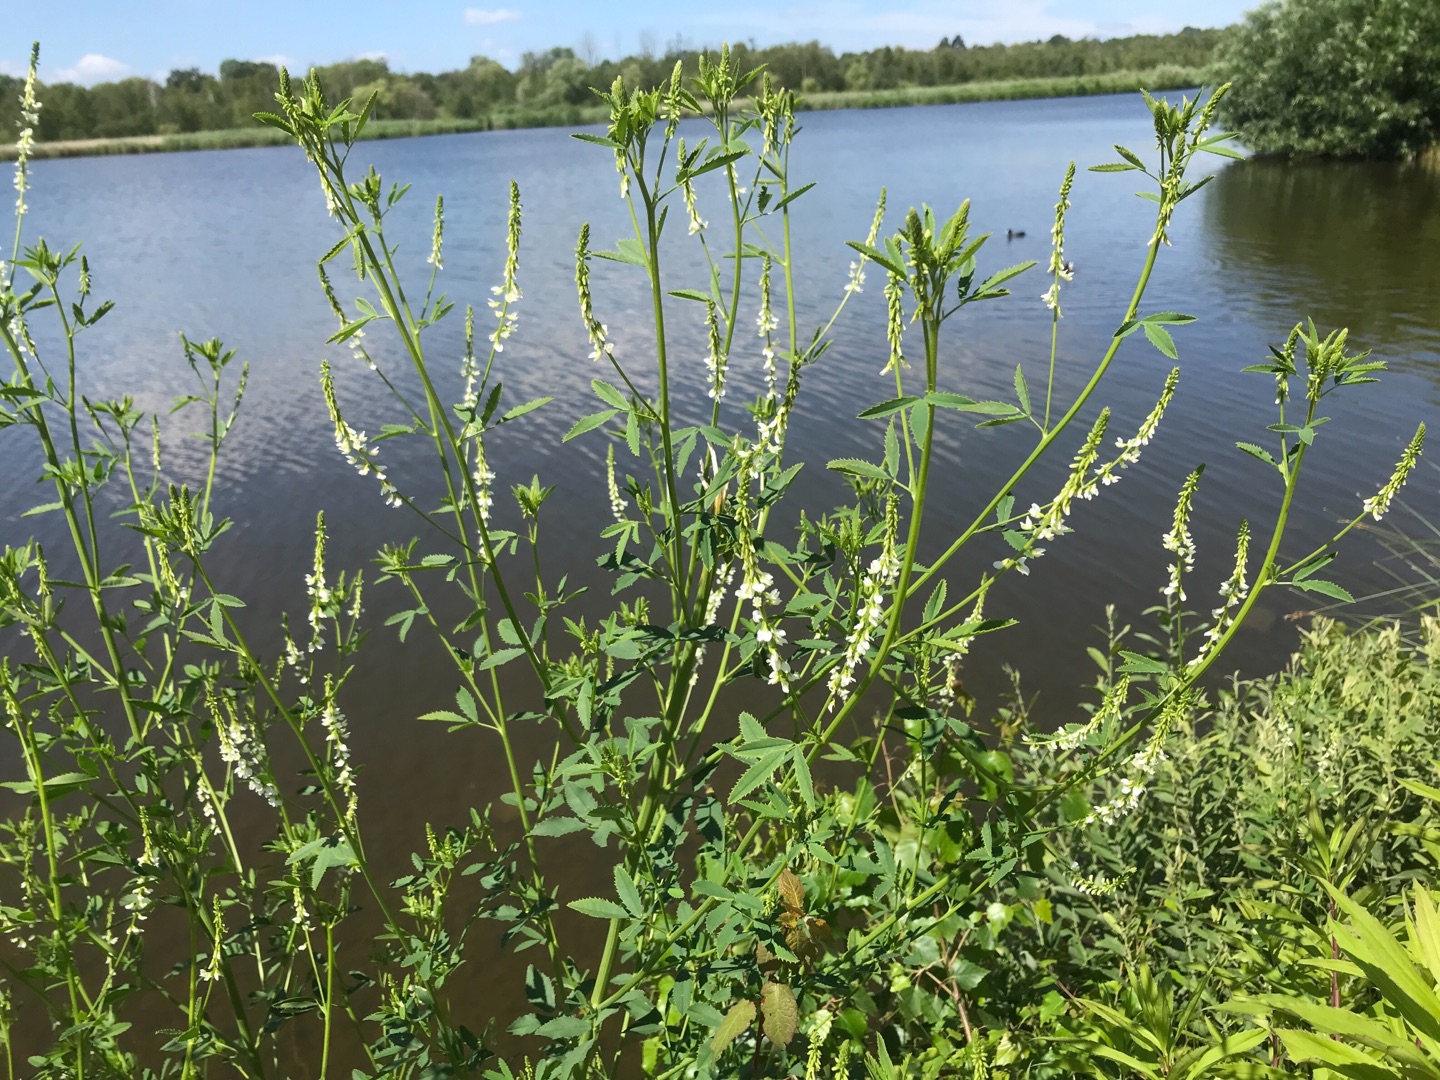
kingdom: Plantae
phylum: Tracheophyta
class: Magnoliopsida
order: Fabales
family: Fabaceae
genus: Melilotus
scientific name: Melilotus albus
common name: Hvid stenkløver
